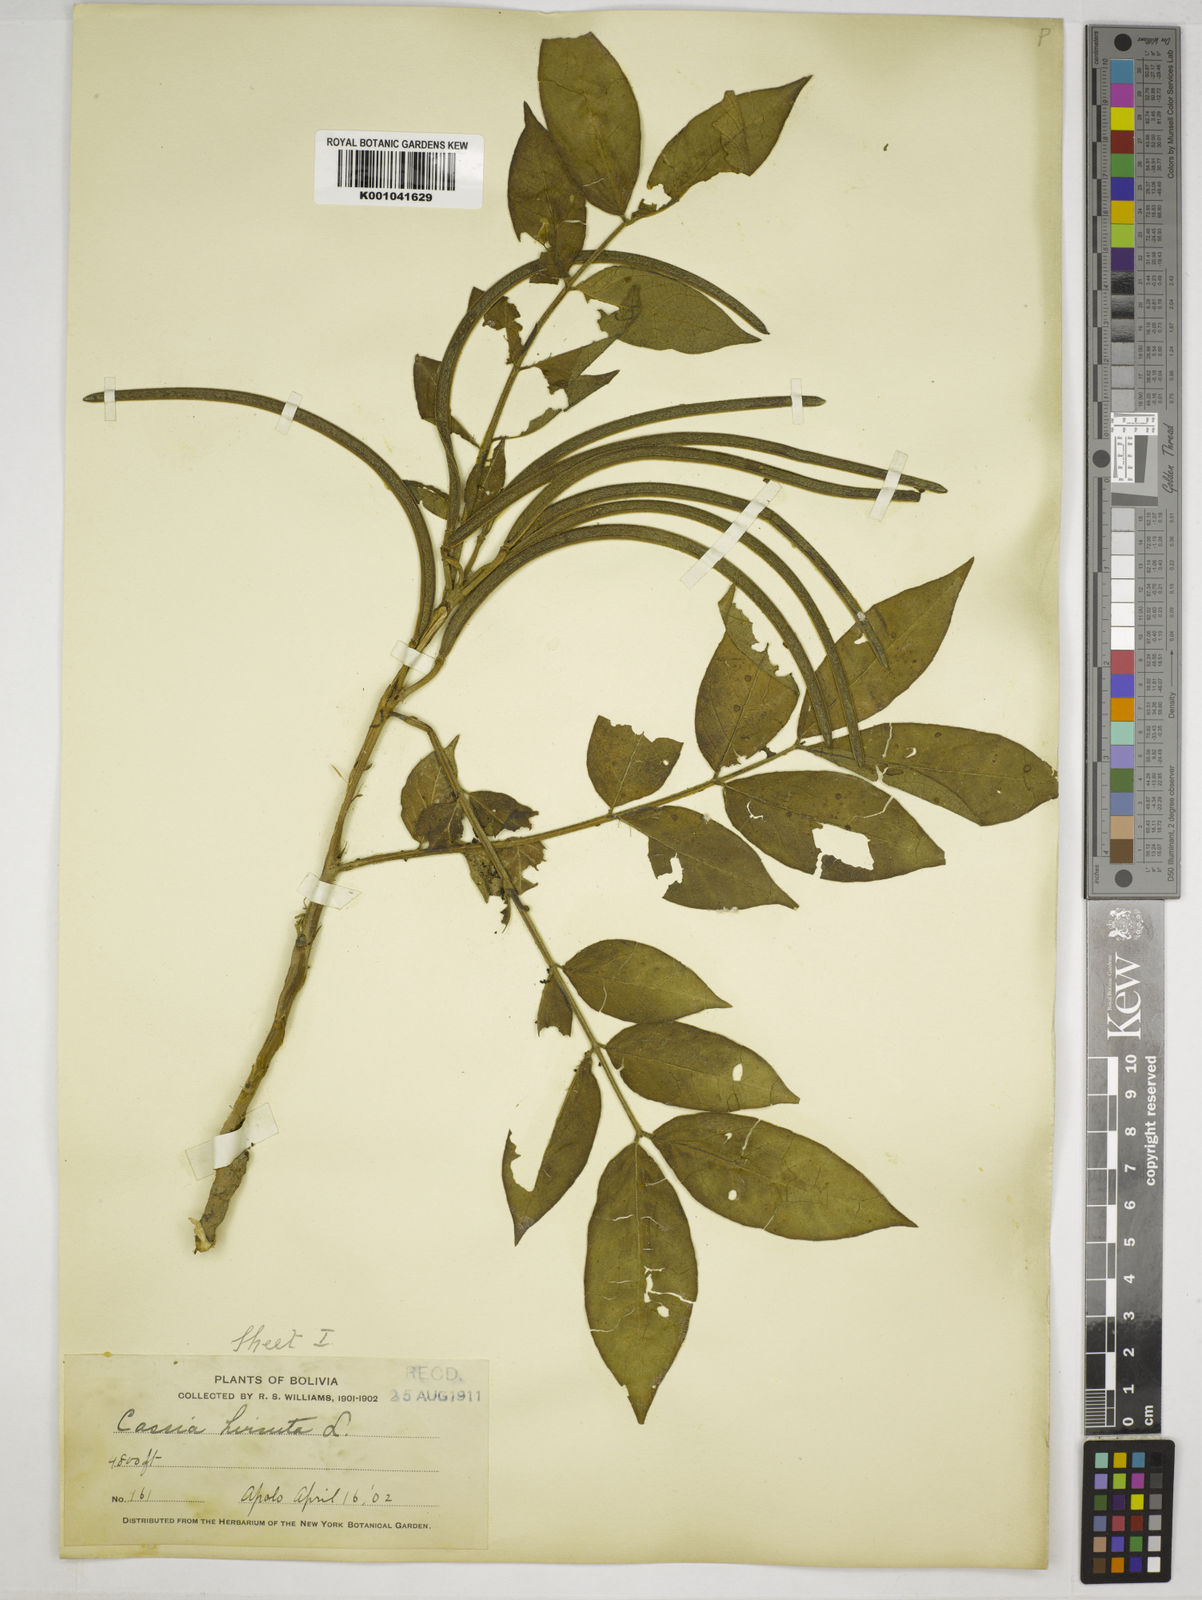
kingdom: Plantae
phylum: Tracheophyta
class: Magnoliopsida
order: Fabales
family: Fabaceae
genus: Senna
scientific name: Senna hirsuta
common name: Woolly senna
